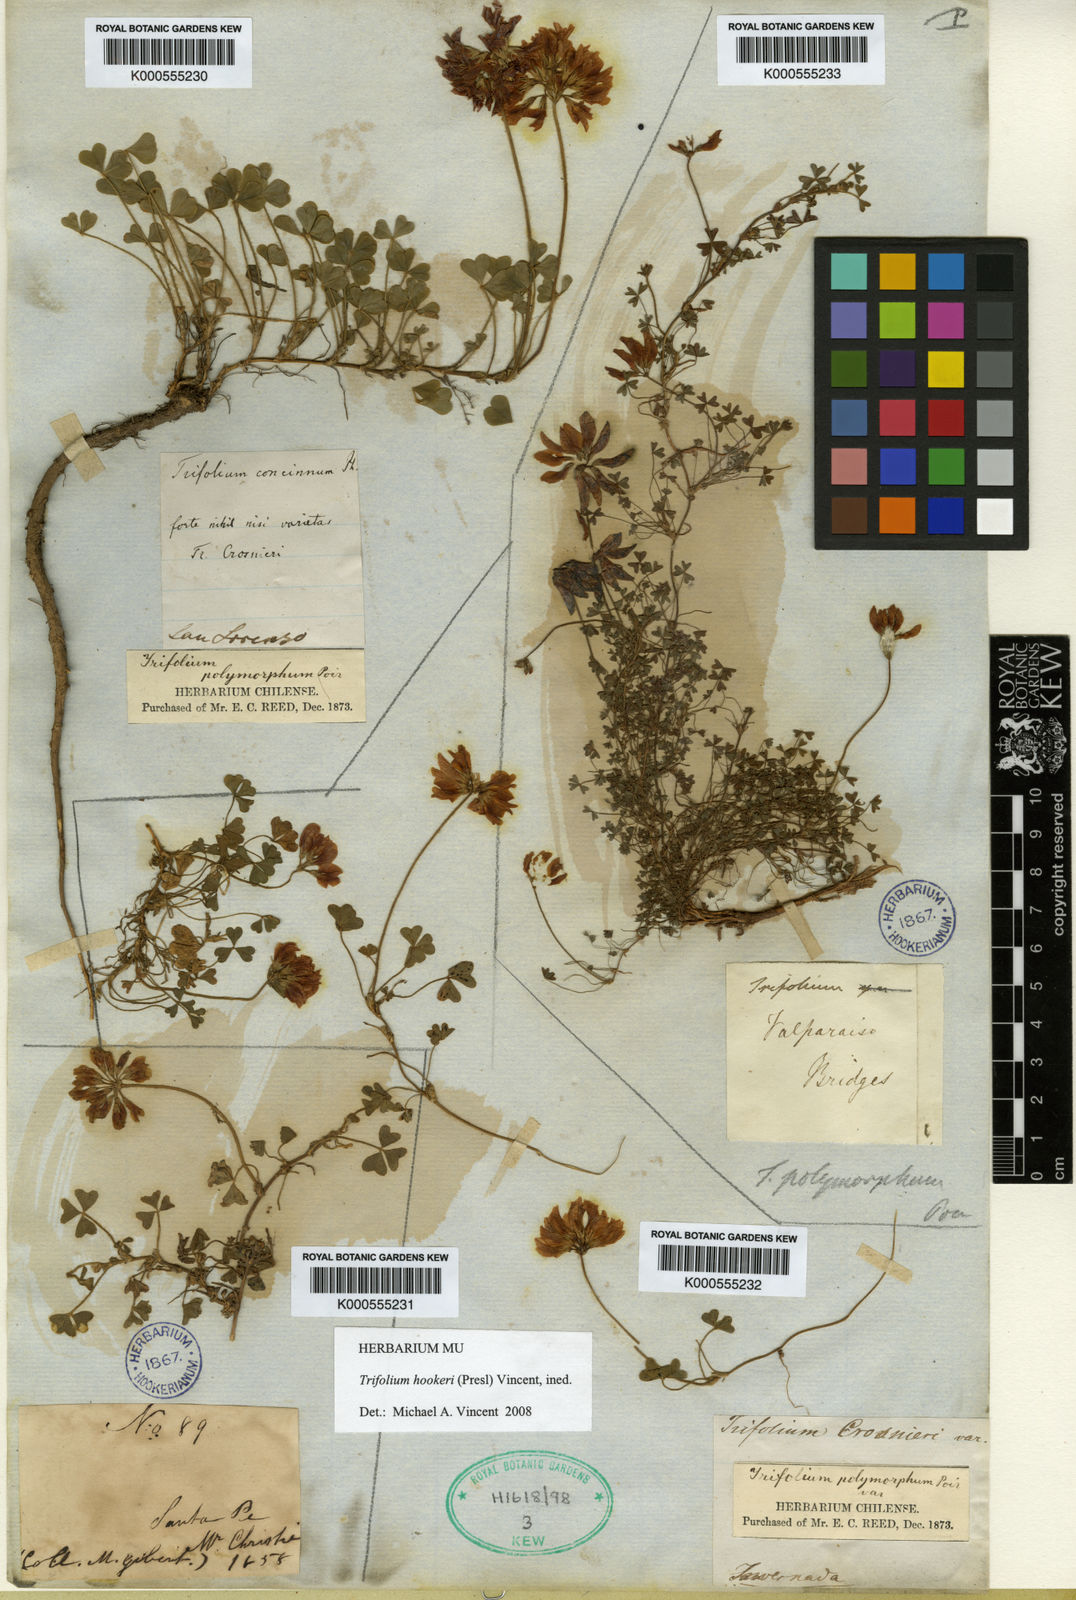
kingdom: Plantae
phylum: Tracheophyta
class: Magnoliopsida
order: Fabales
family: Fabaceae
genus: Trifolium
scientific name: Trifolium
